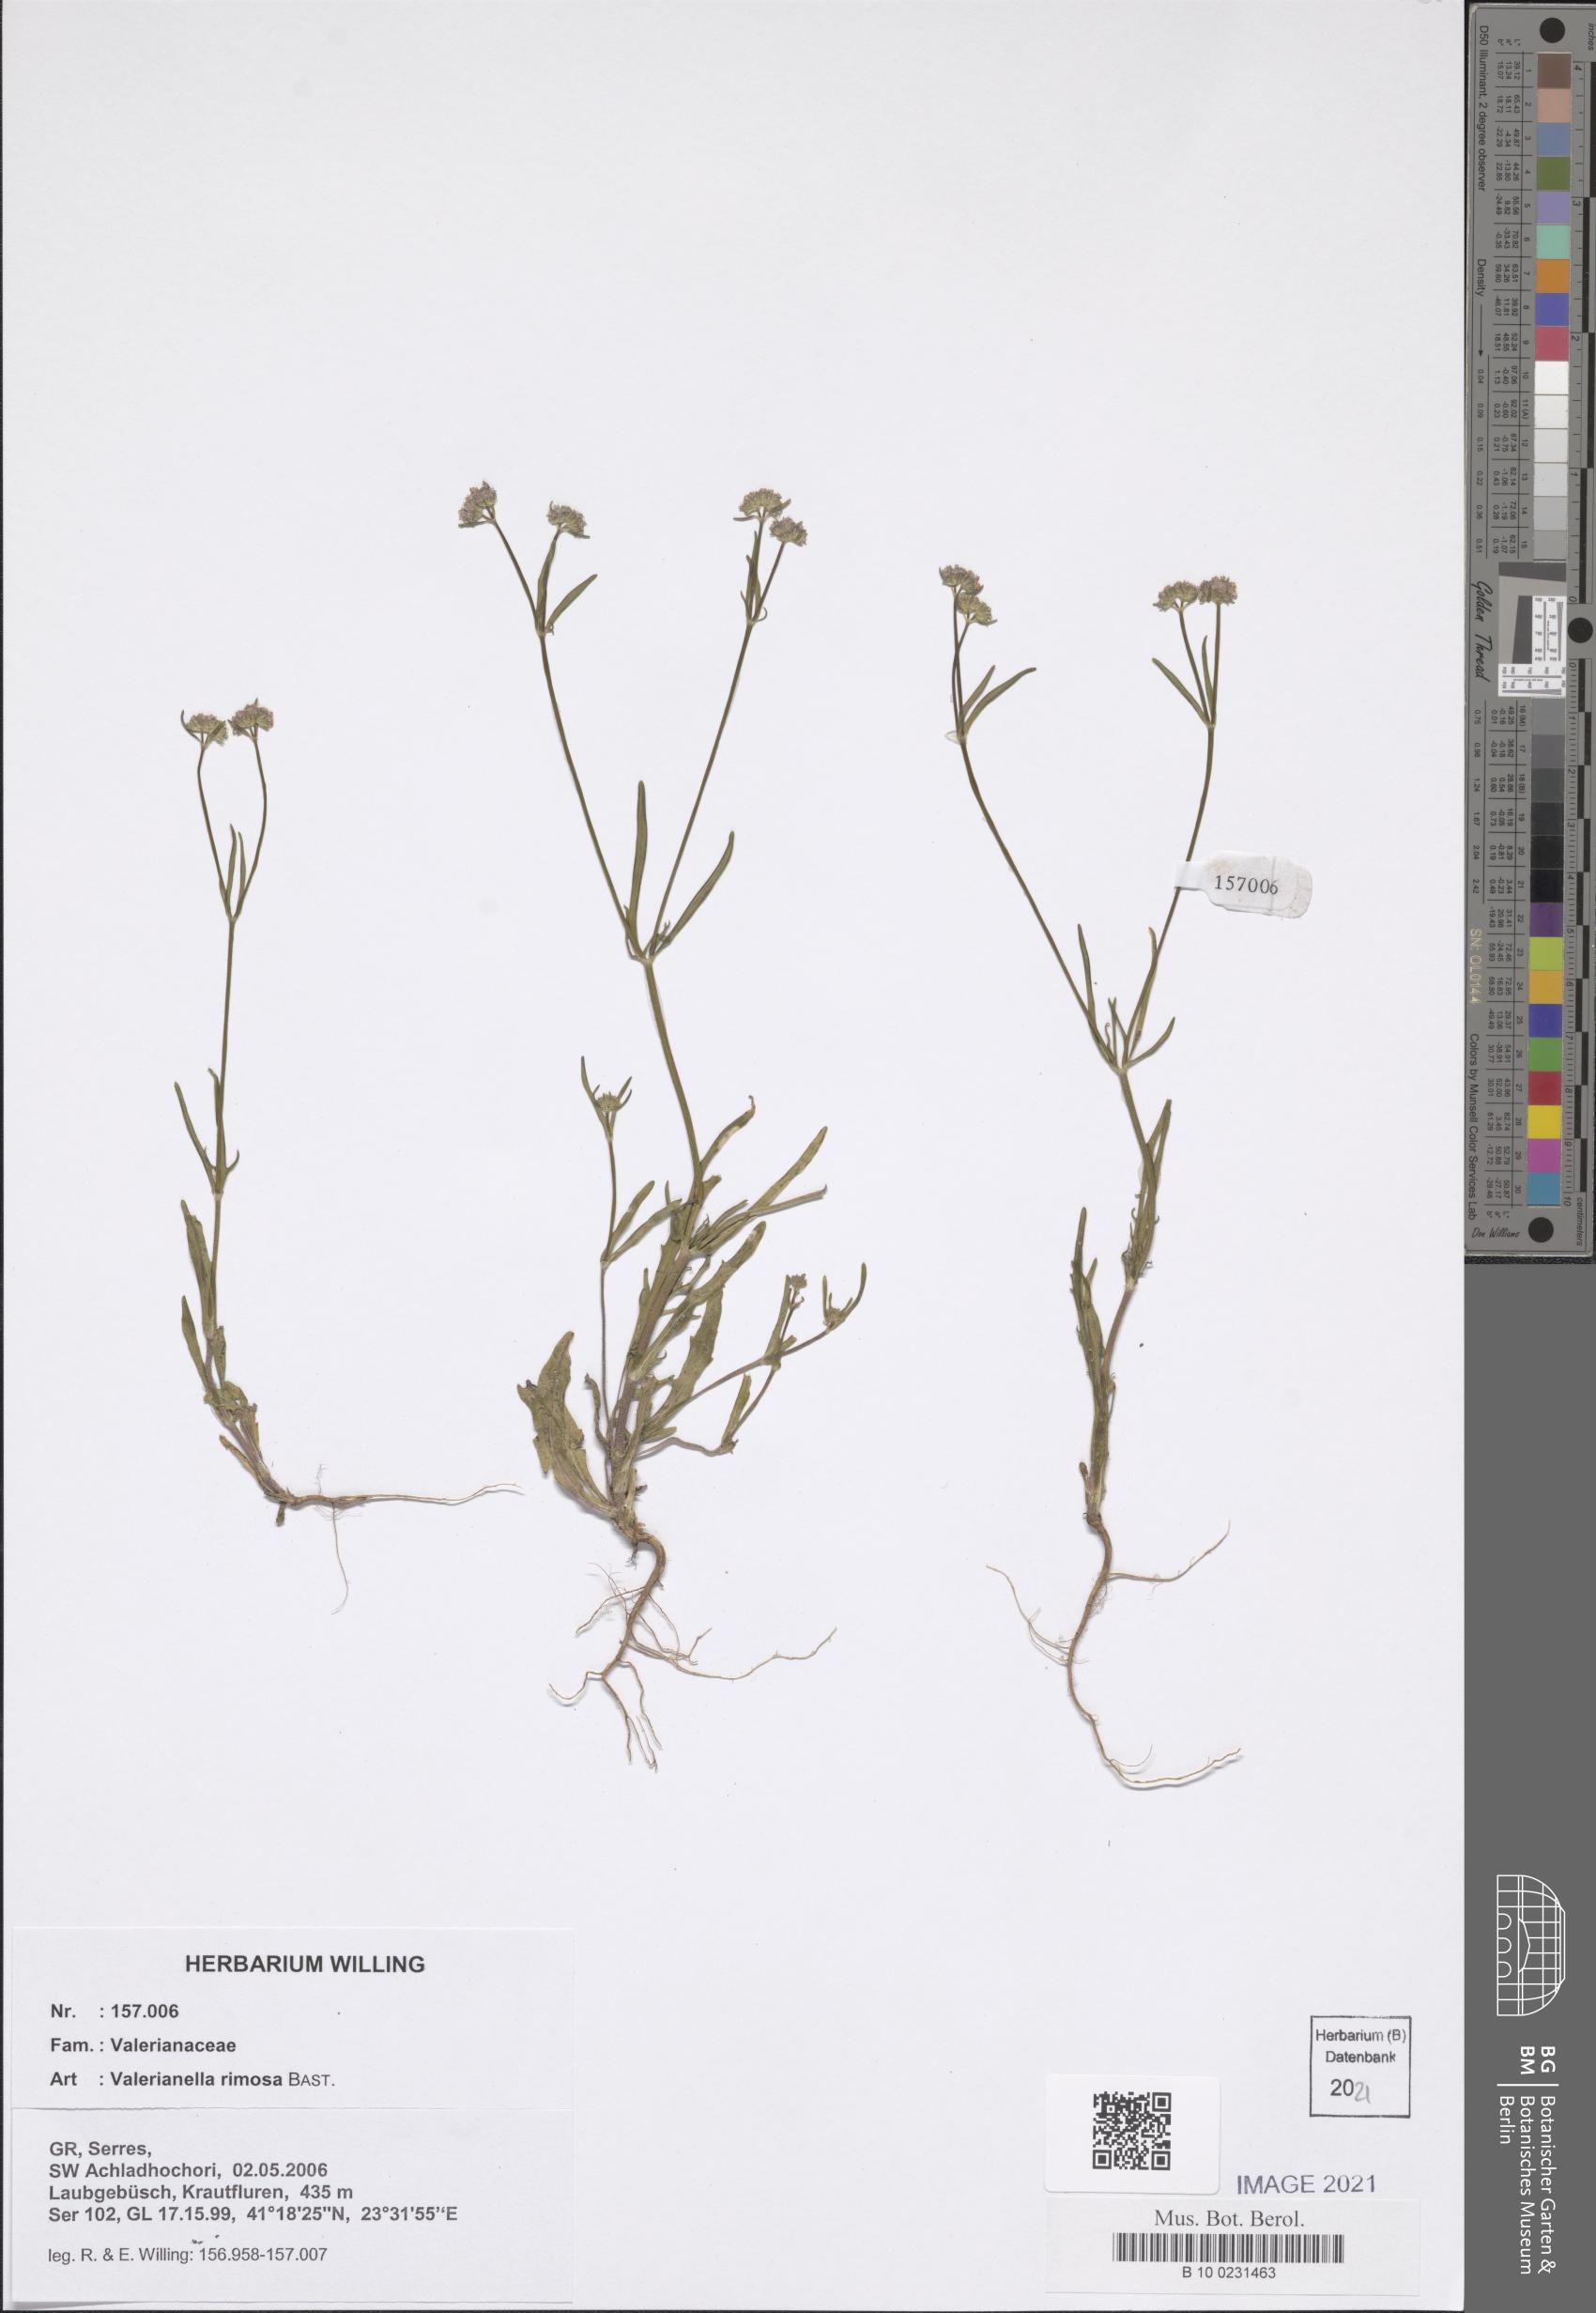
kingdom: Plantae
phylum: Tracheophyta
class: Magnoliopsida
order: Dipsacales
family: Caprifoliaceae
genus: Valerianella
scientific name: Valerianella rimosa
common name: Broad-fruited cornsalad
